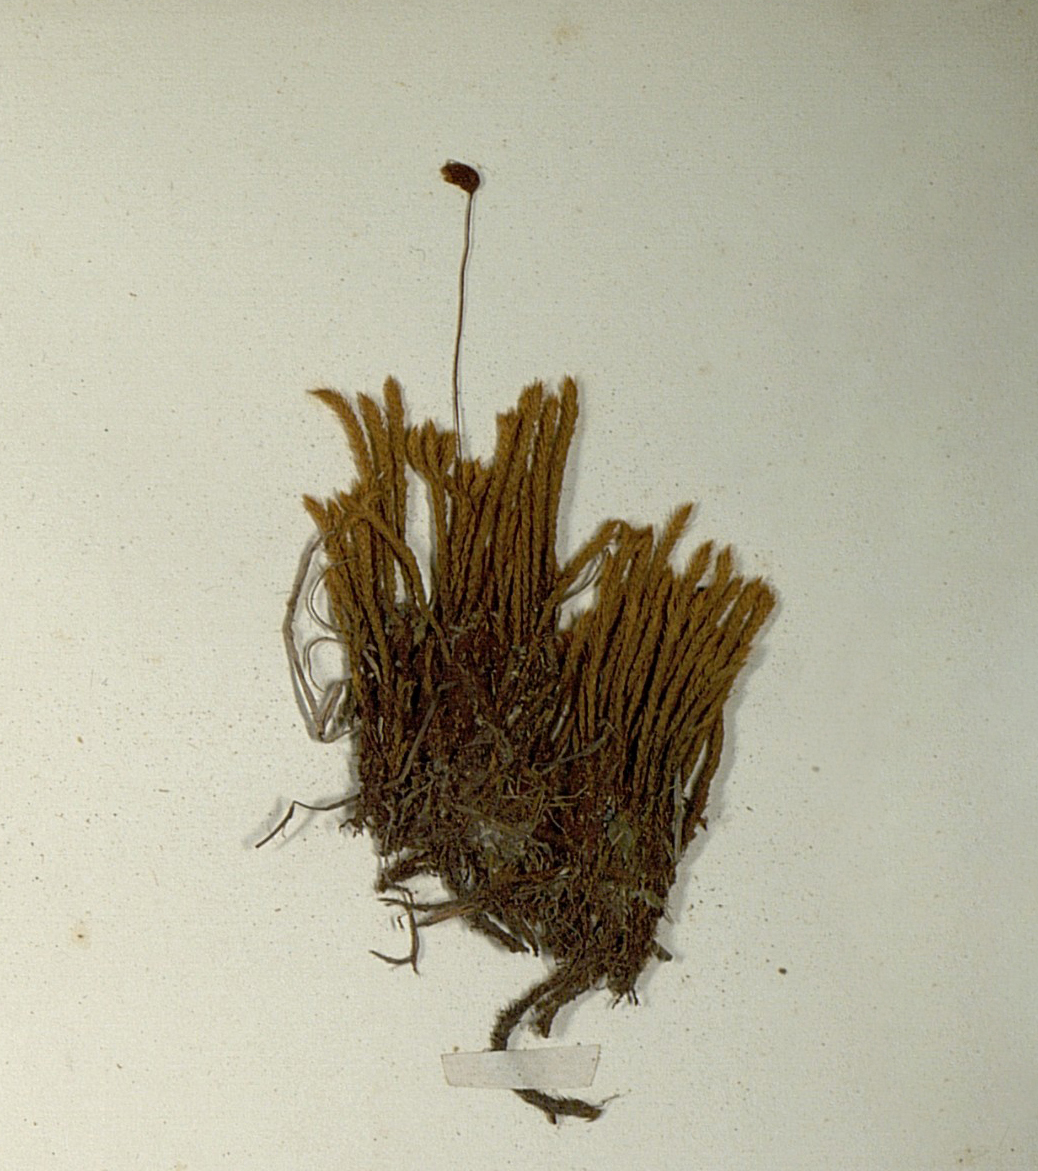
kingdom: Plantae
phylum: Bryophyta
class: Bryopsida
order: Hypnales
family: Hypnaceae
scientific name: Hypnaceae
